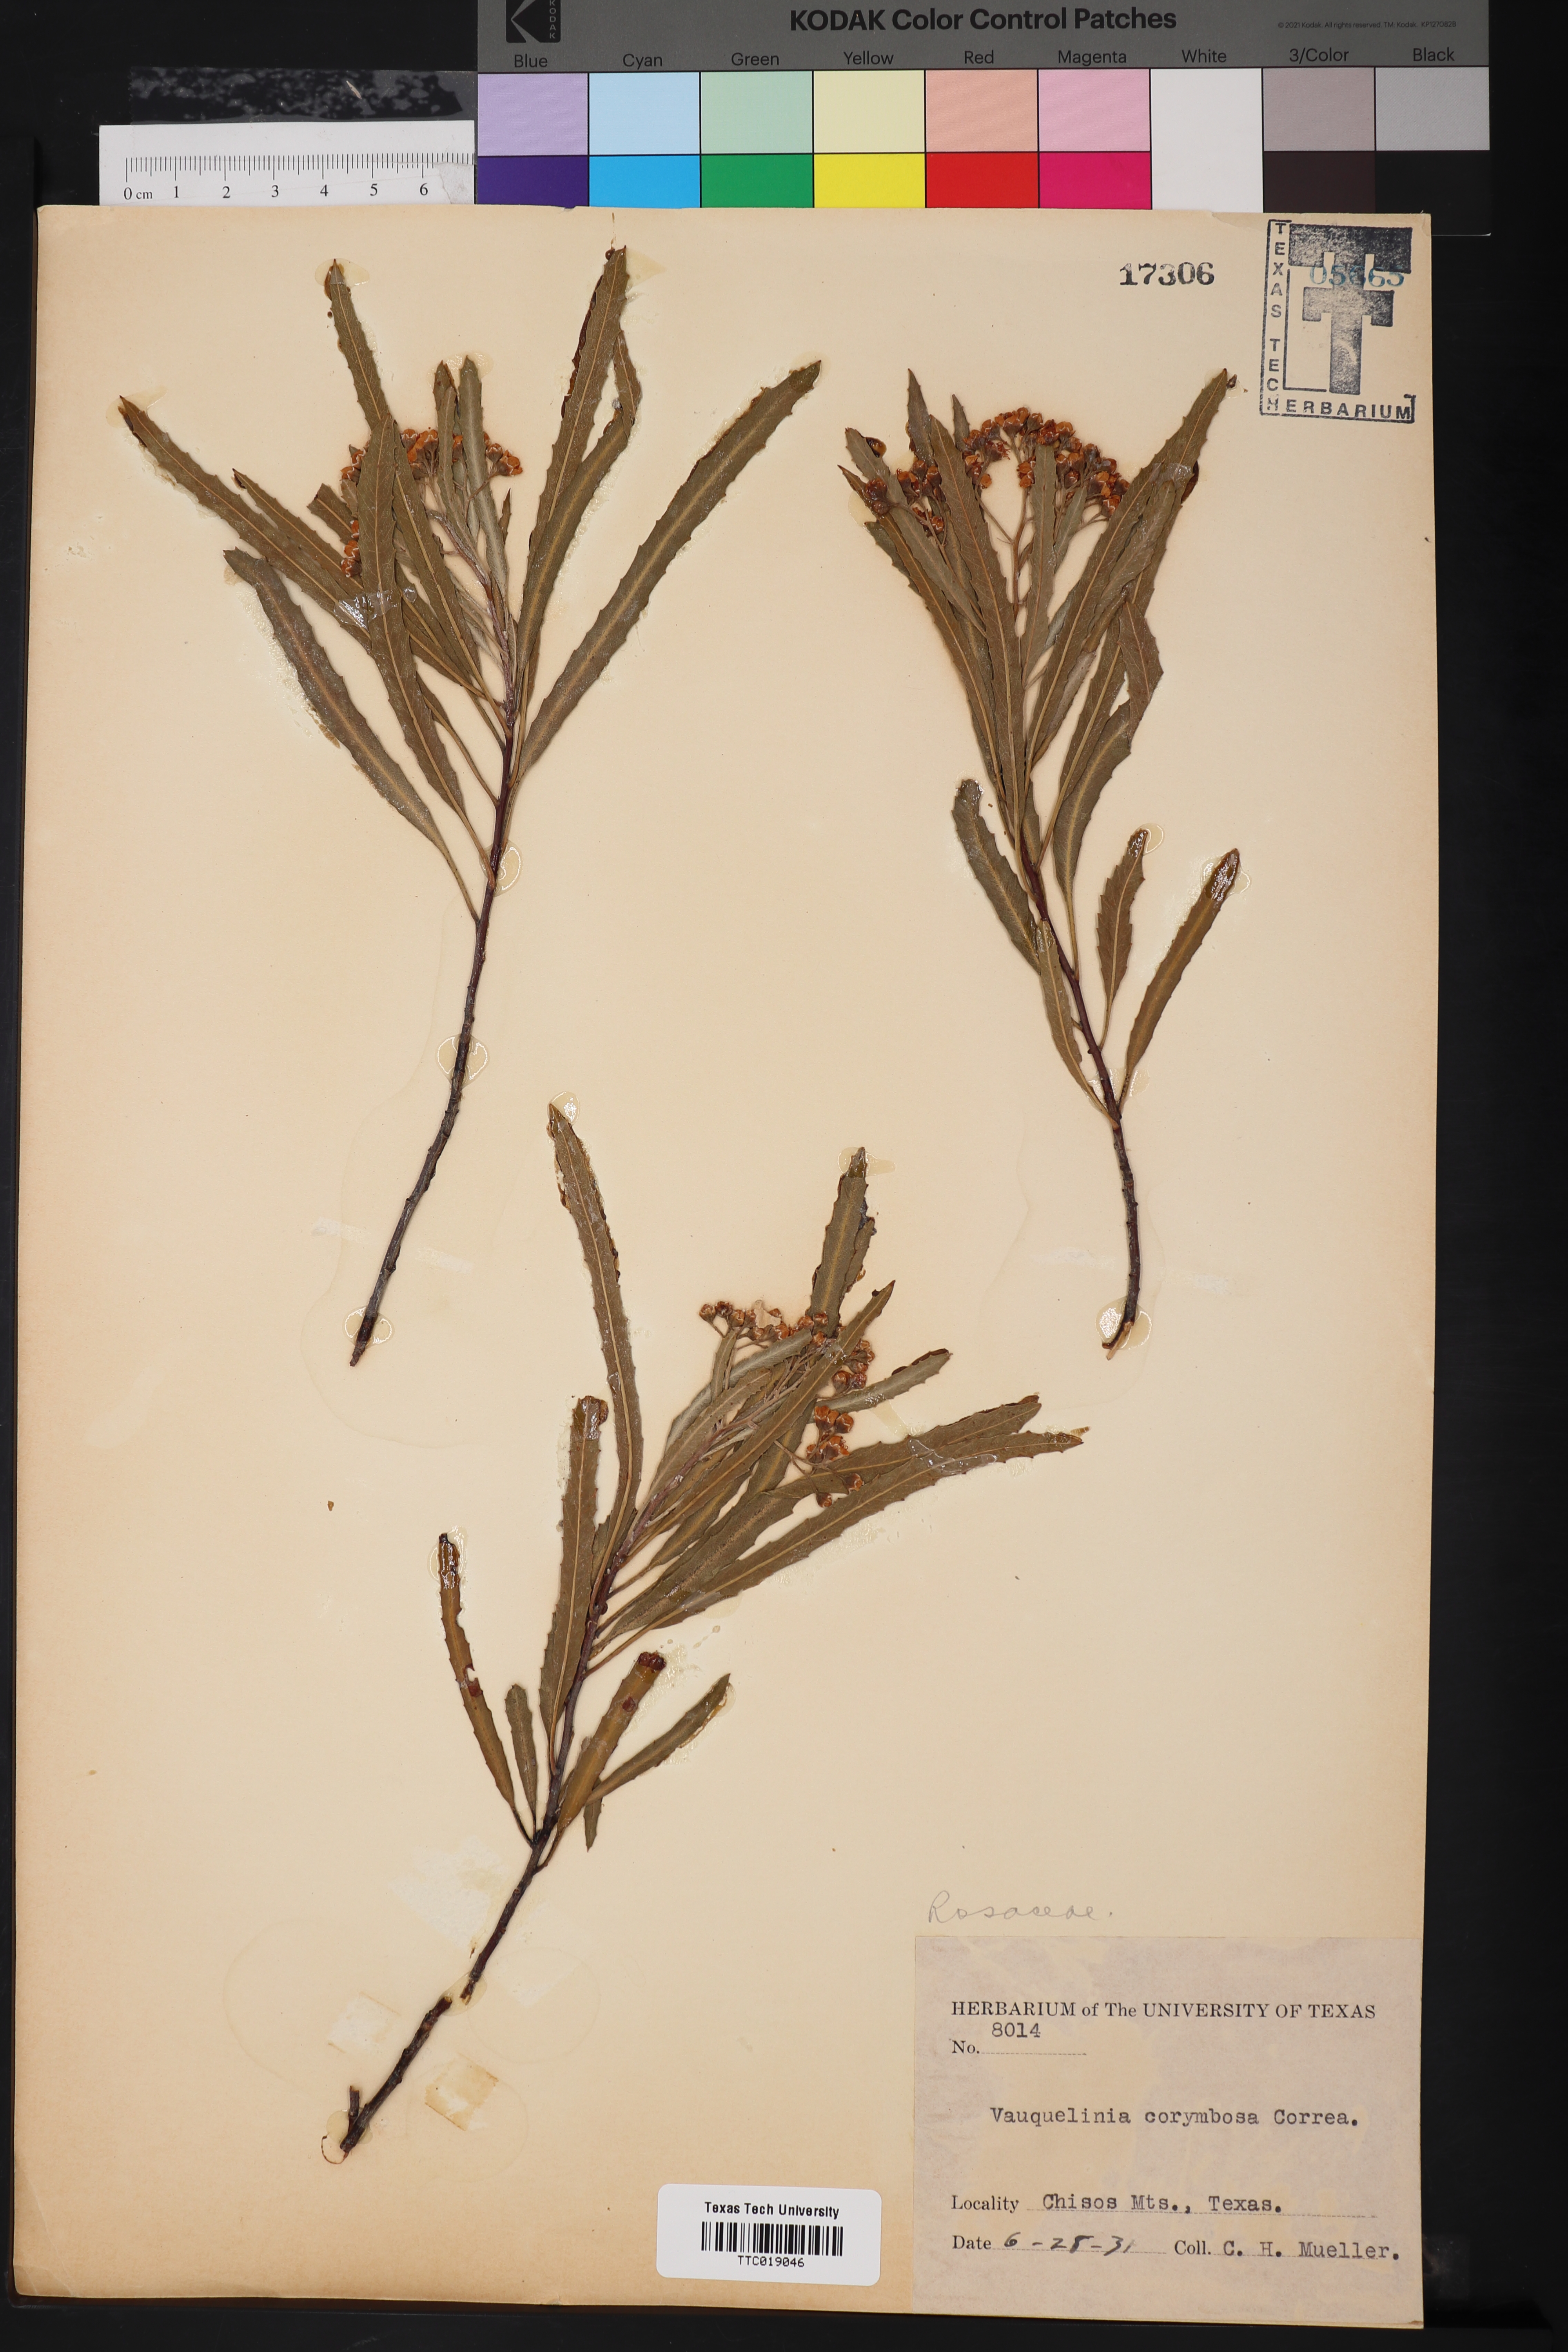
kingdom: Plantae
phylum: Tracheophyta
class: Magnoliopsida
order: Rosales
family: Rosaceae
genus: Vauquelinia
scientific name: Vauquelinia corymbosa
